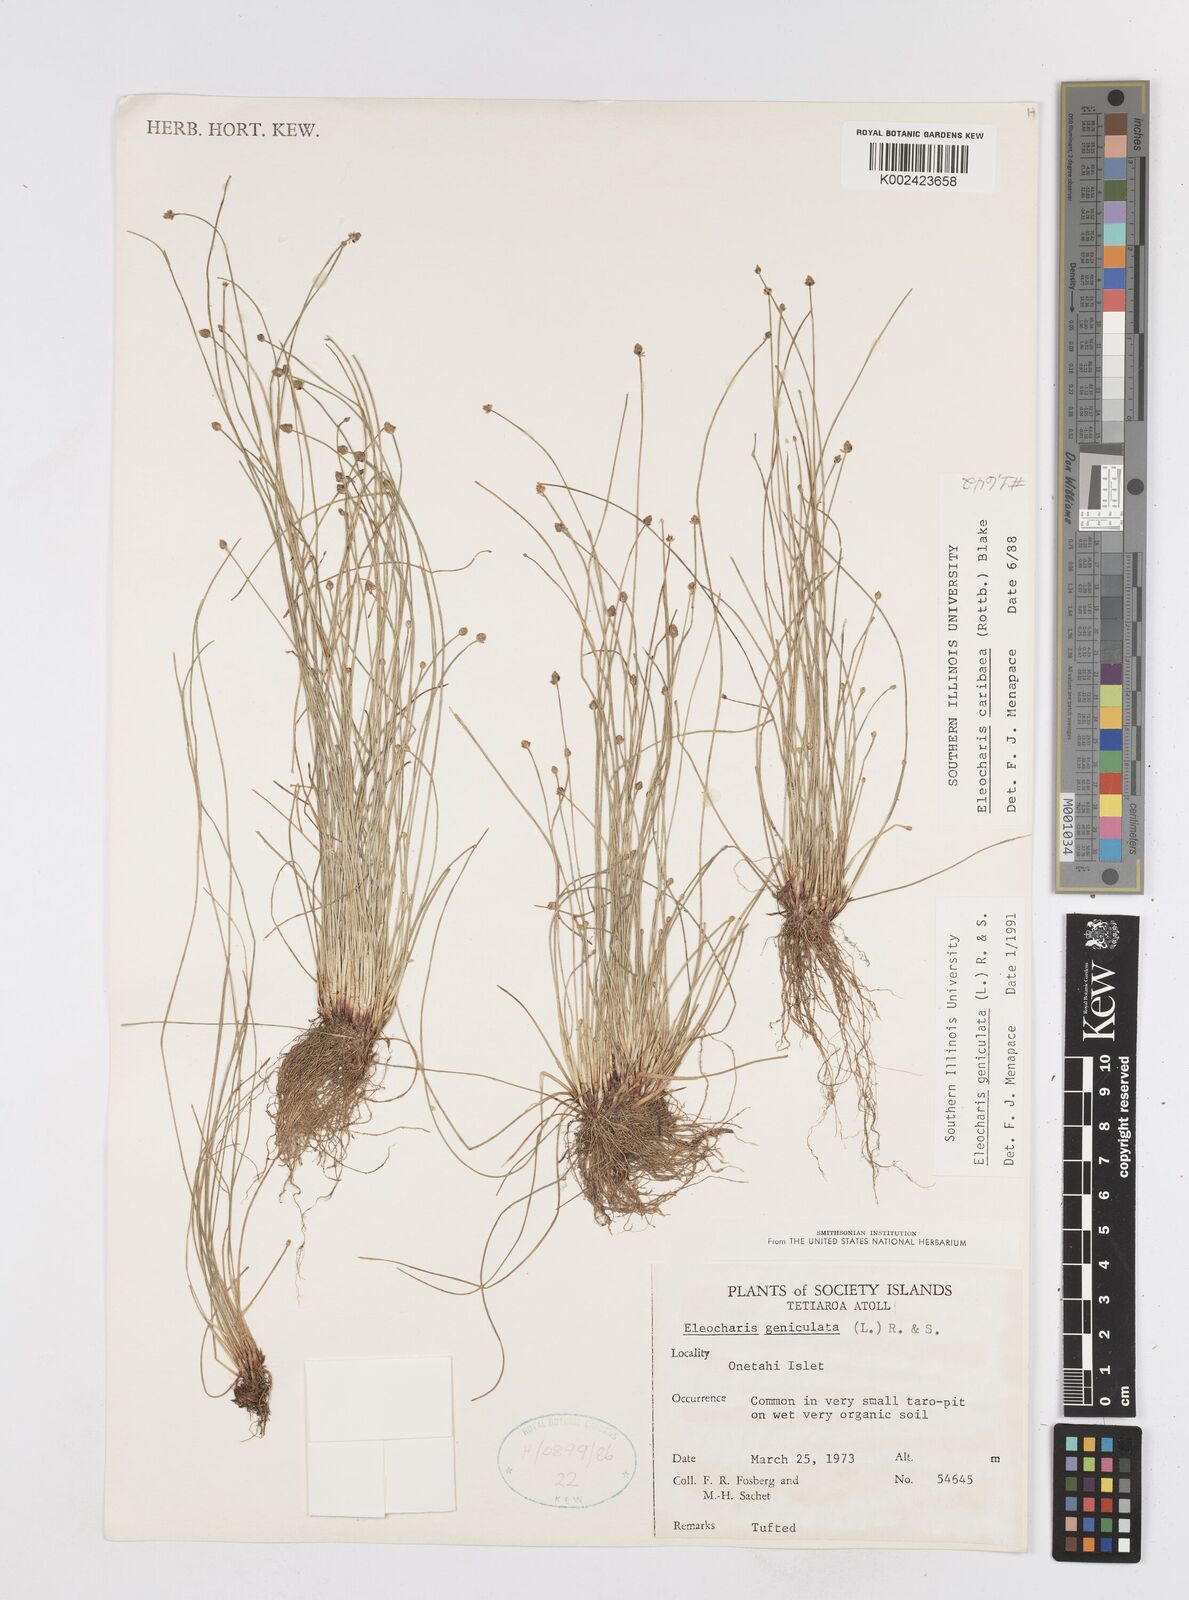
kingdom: Plantae
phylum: Tracheophyta
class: Liliopsida
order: Poales
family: Cyperaceae
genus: Eleocharis
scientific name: Eleocharis macrostachya
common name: Pale spikerush
